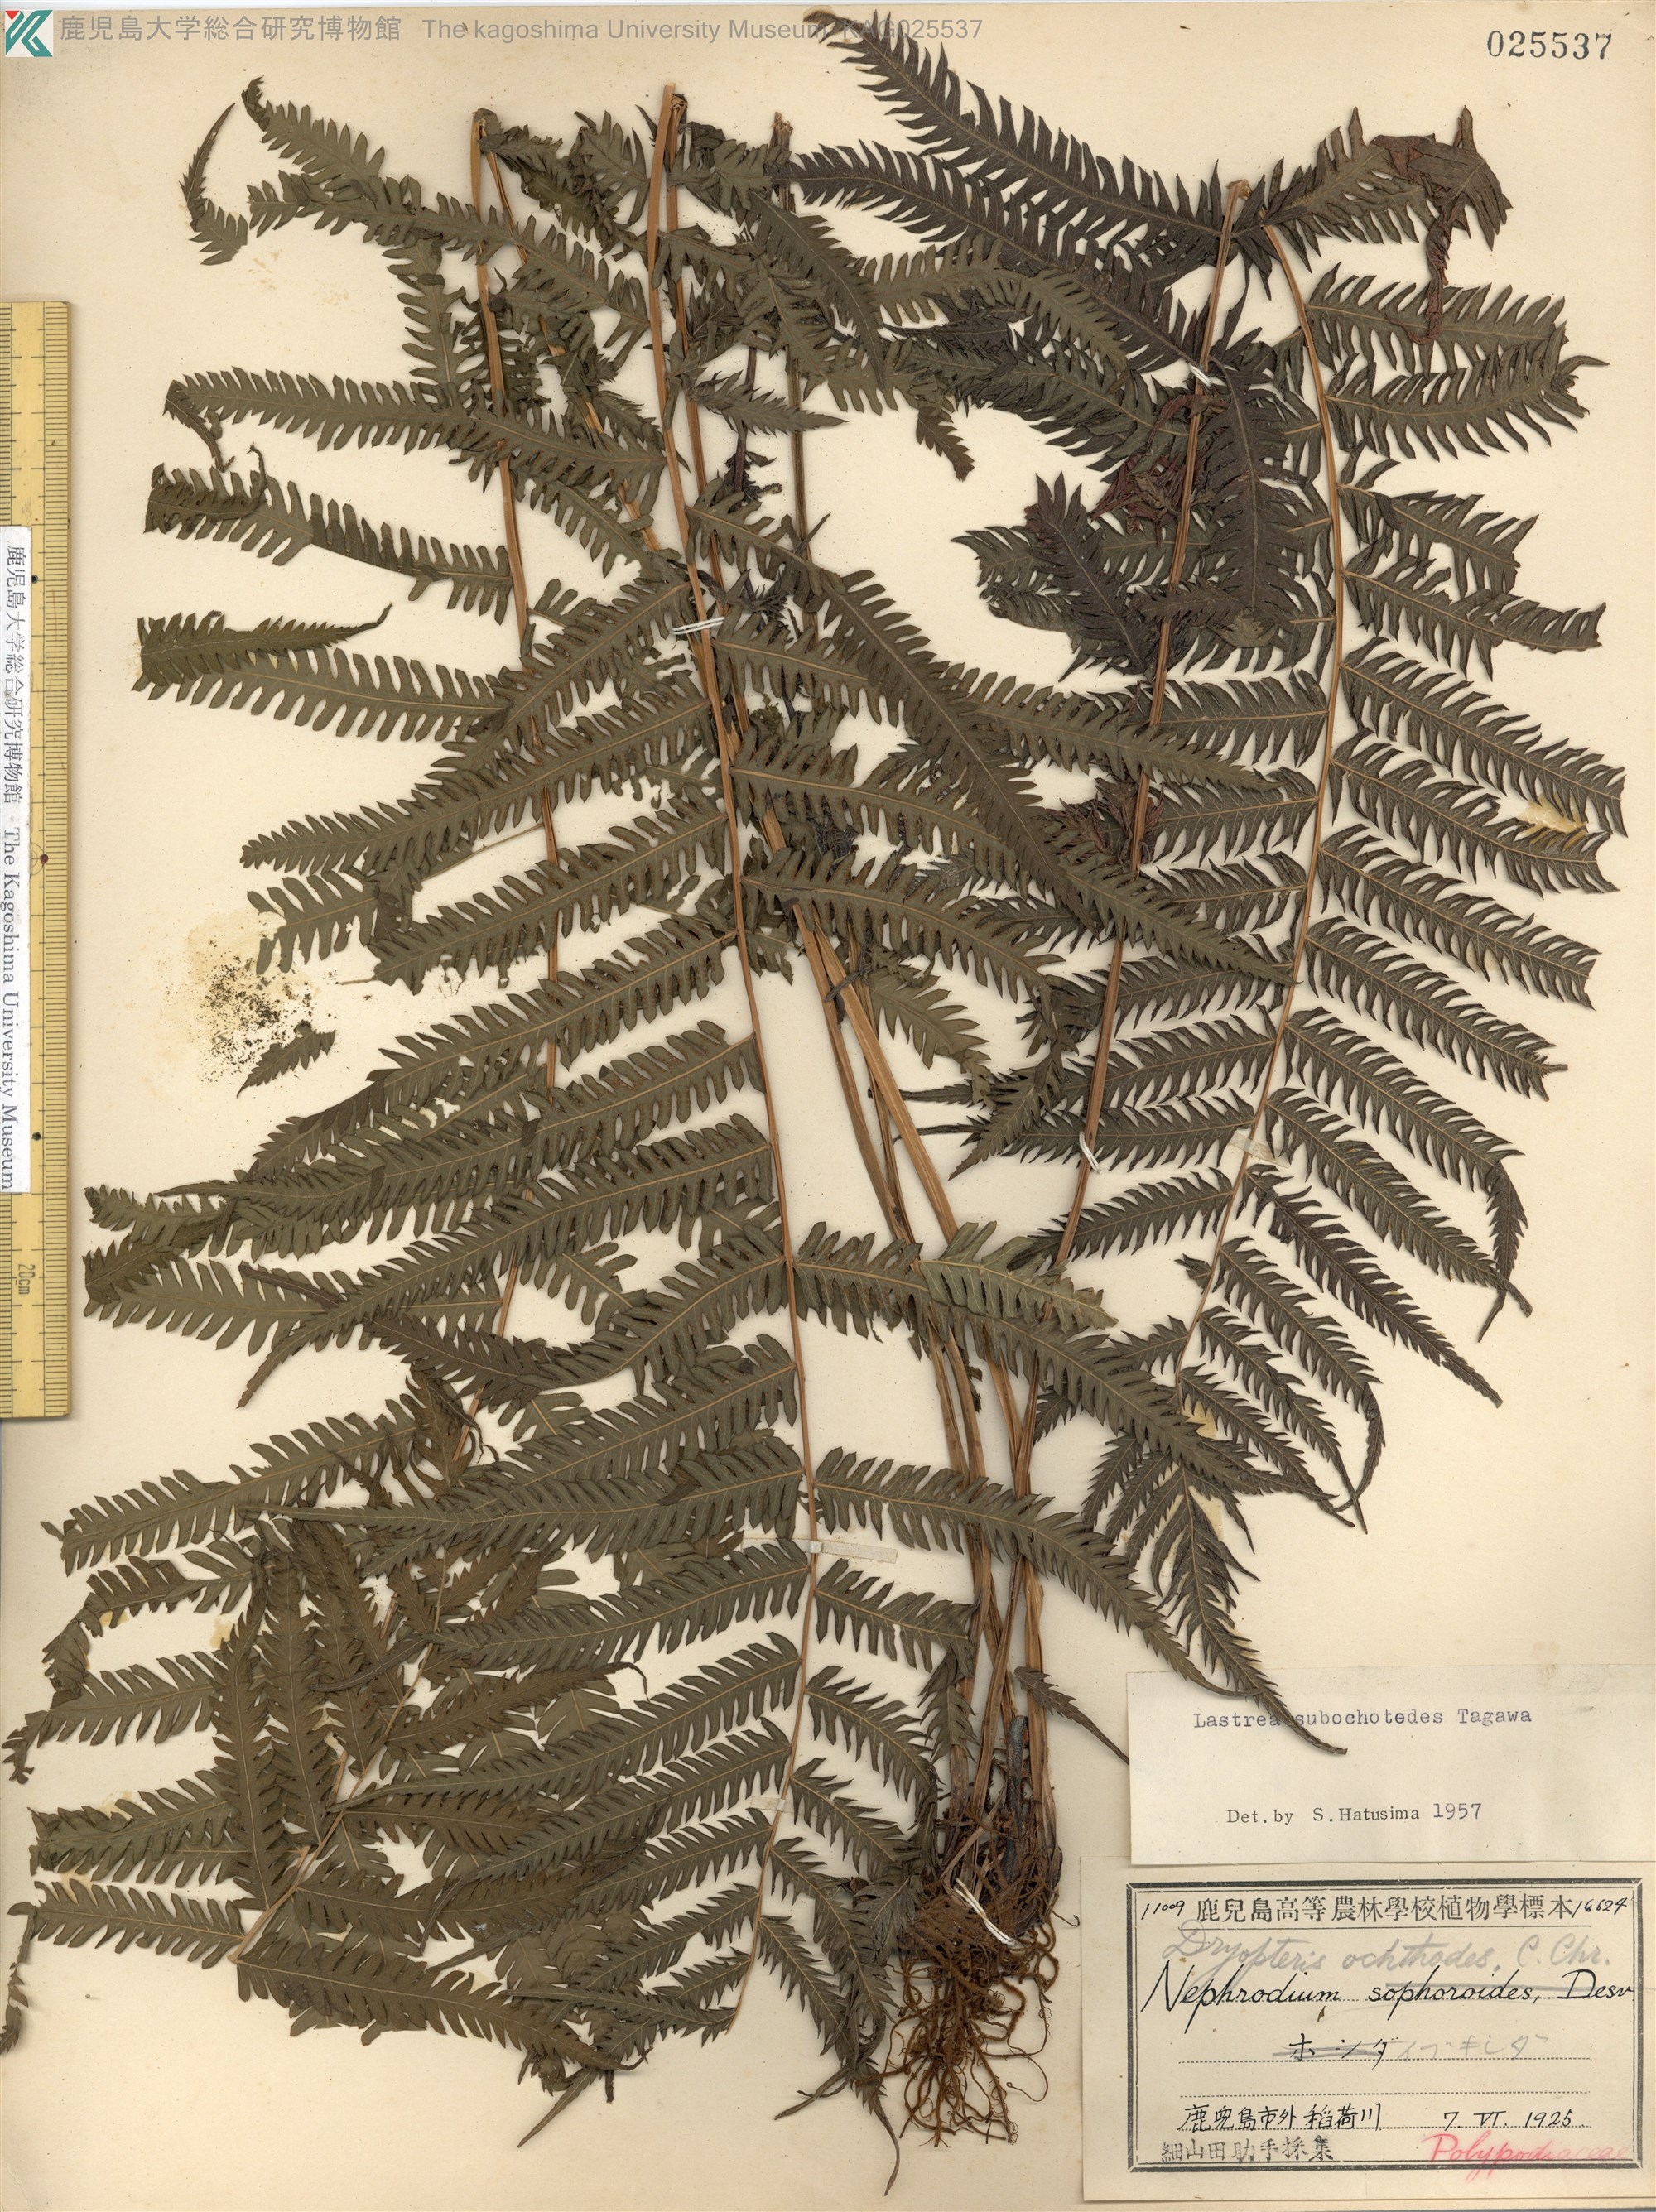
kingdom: Plantae
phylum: Tracheophyta
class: Polypodiopsida
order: Polypodiales
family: Thelypteridaceae
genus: Pseudocyclosorus
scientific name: Pseudocyclosorus esquirolii
